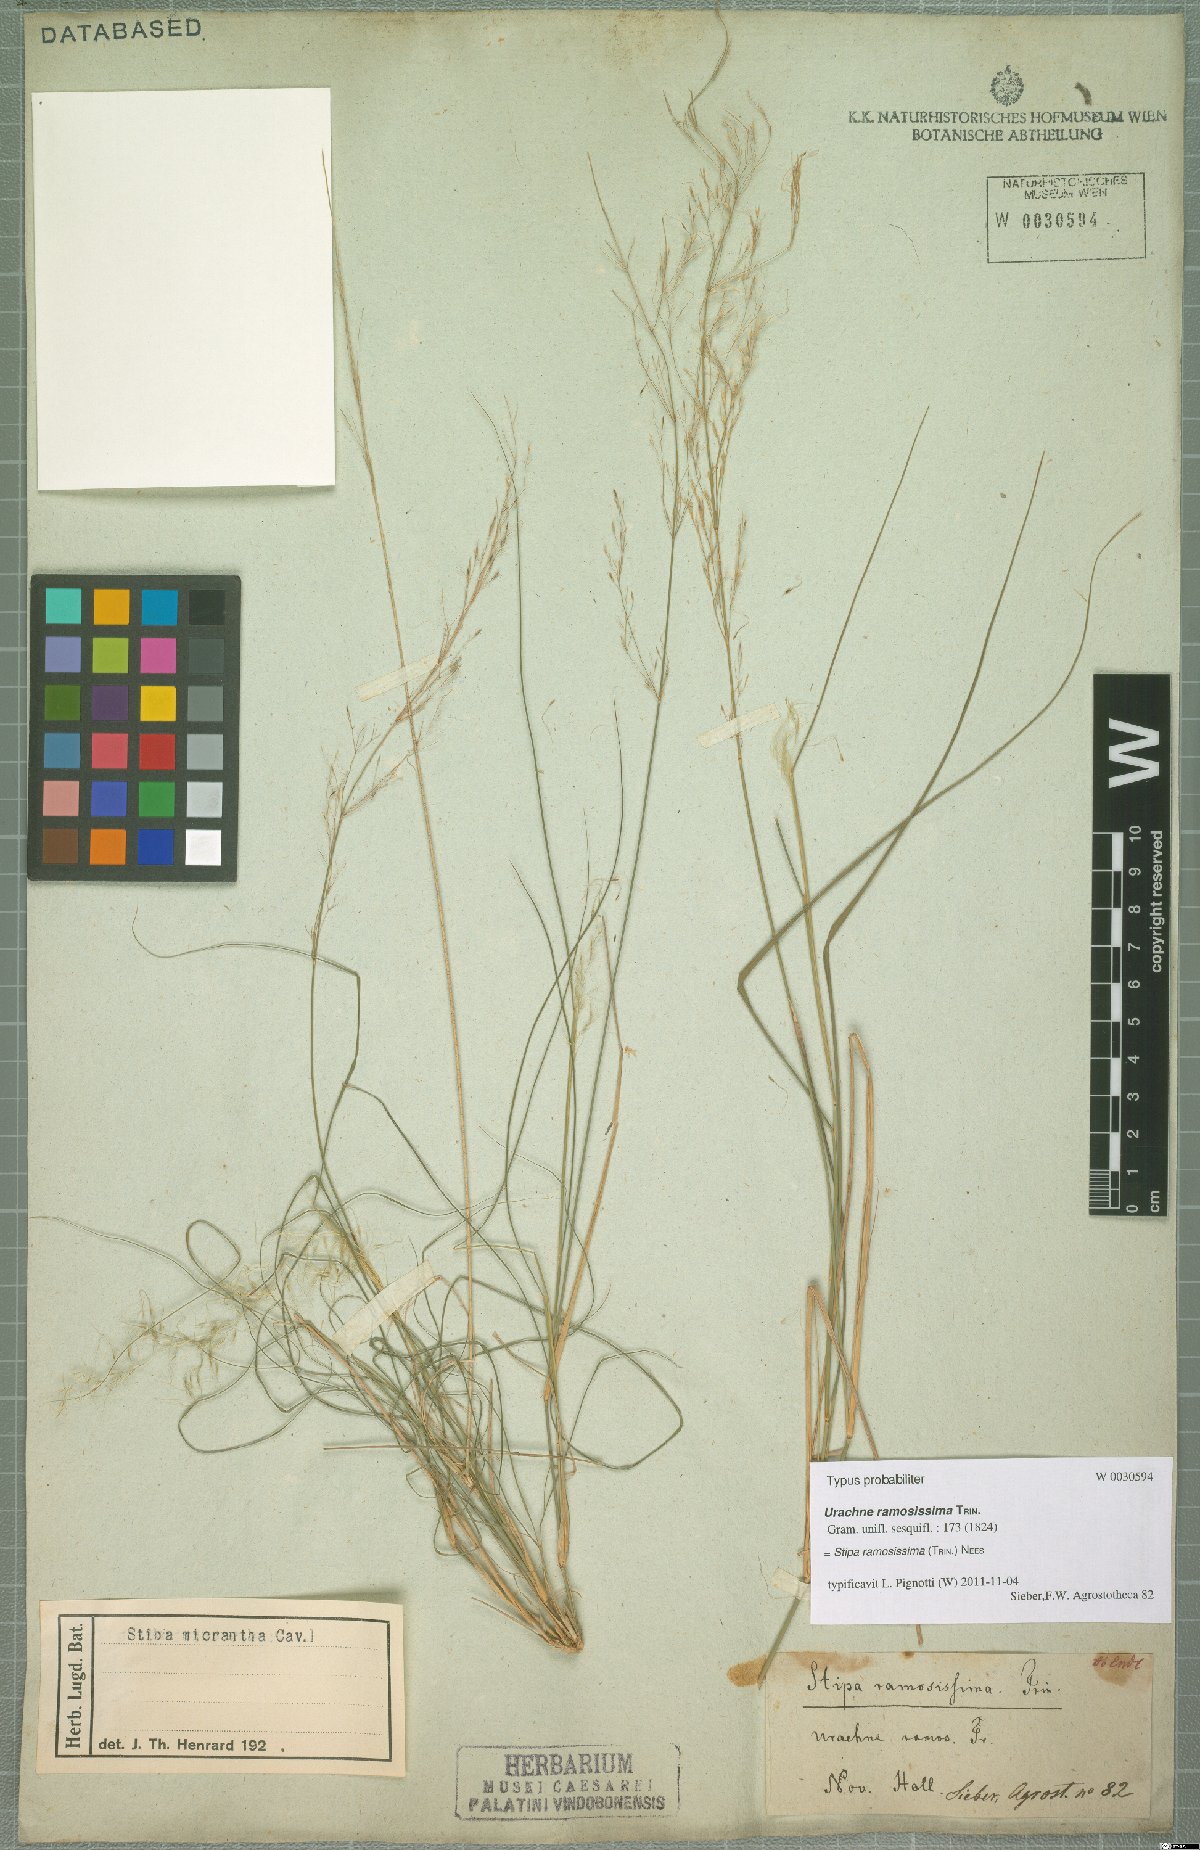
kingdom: Plantae
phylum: Tracheophyta
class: Liliopsida
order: Poales
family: Poaceae
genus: Austrostipa
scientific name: Austrostipa ramosissima
